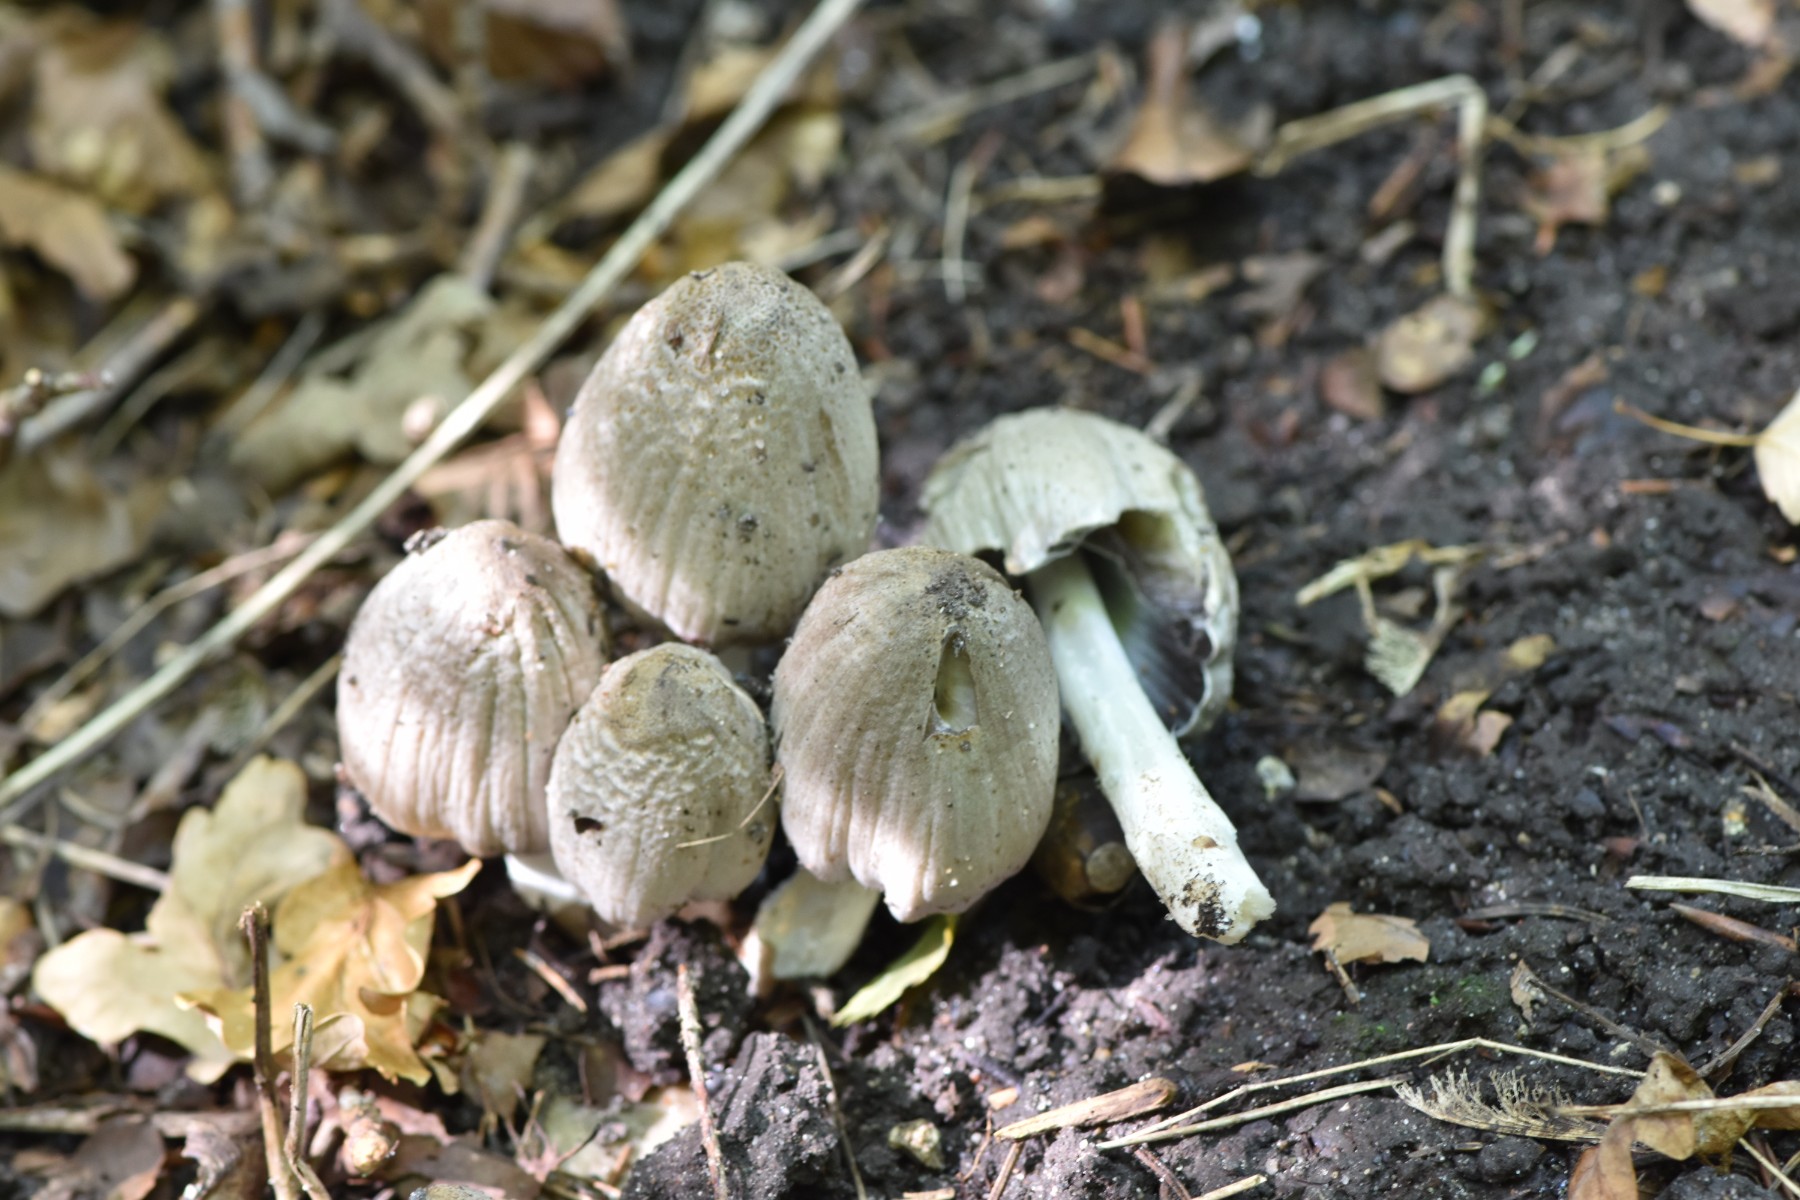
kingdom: Fungi
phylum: Basidiomycota
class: Agaricomycetes
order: Agaricales
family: Psathyrellaceae
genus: Coprinopsis
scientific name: Coprinopsis atramentaria
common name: almindelig blækhat
